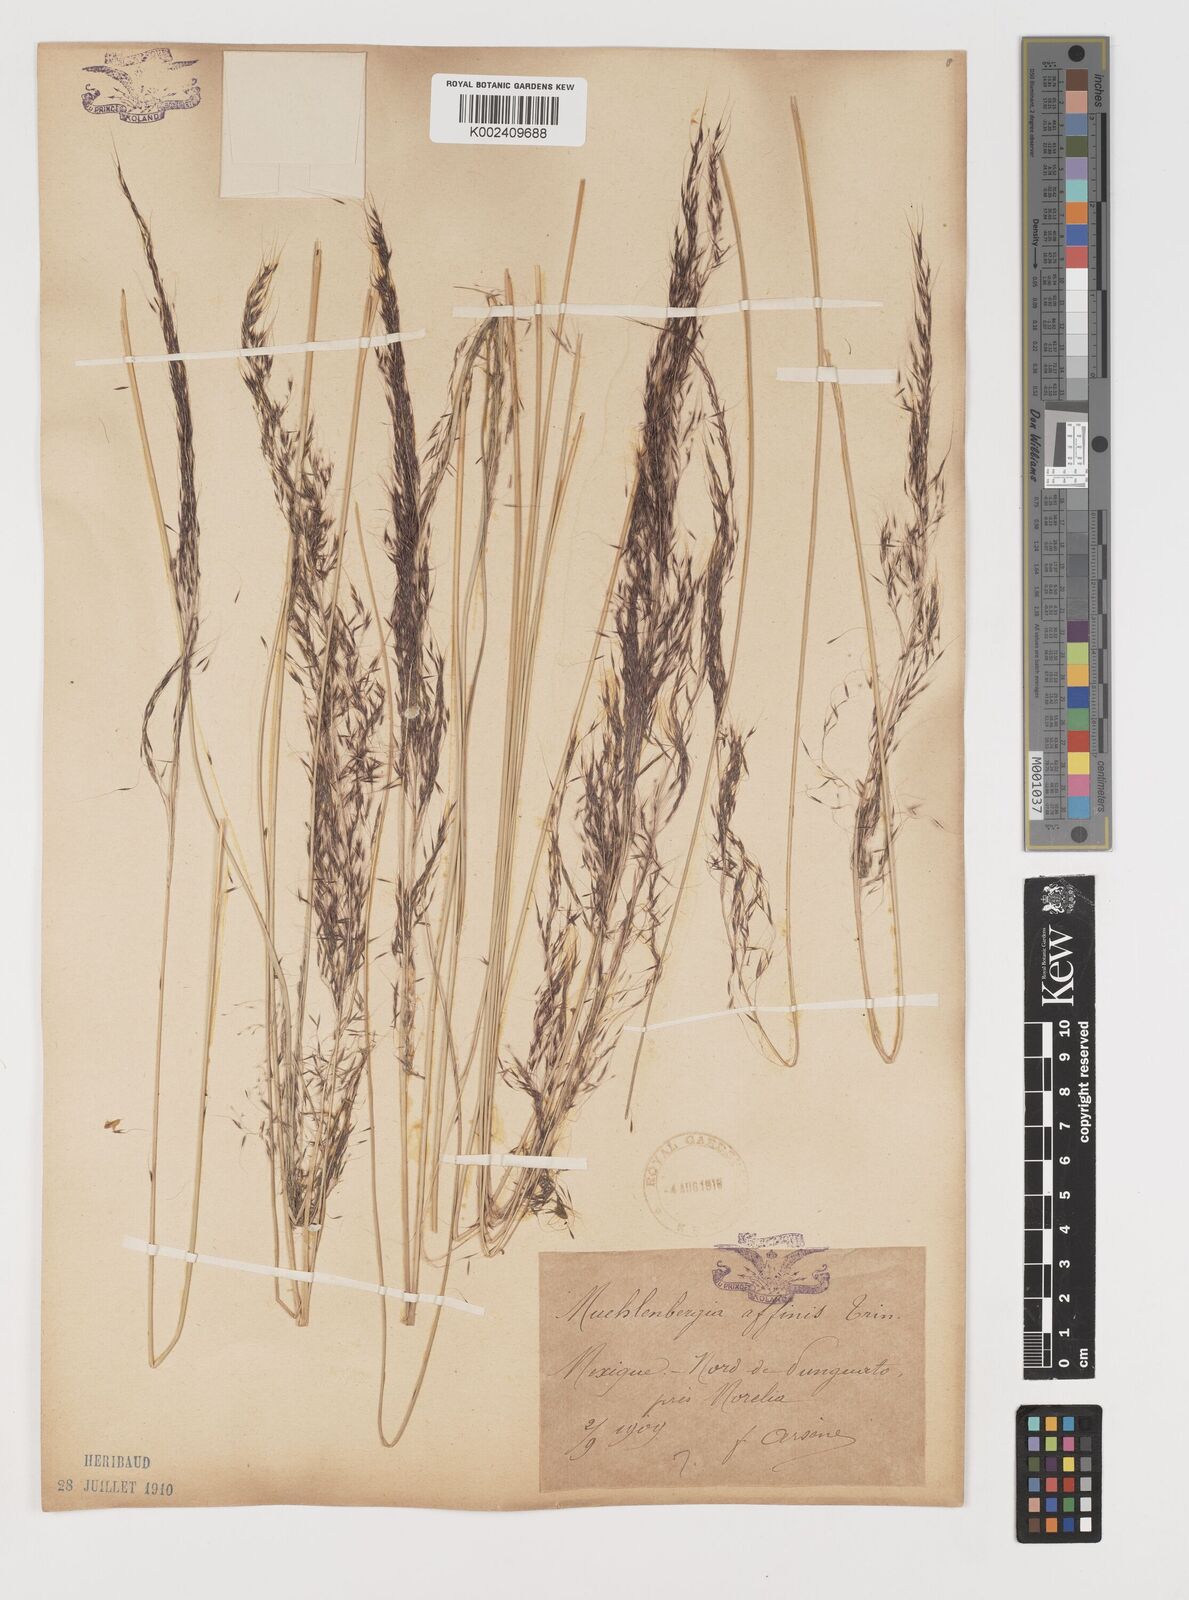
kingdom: Plantae
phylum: Tracheophyta
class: Liliopsida
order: Poales
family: Poaceae
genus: Muhlenbergia
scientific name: Muhlenbergia rigida
